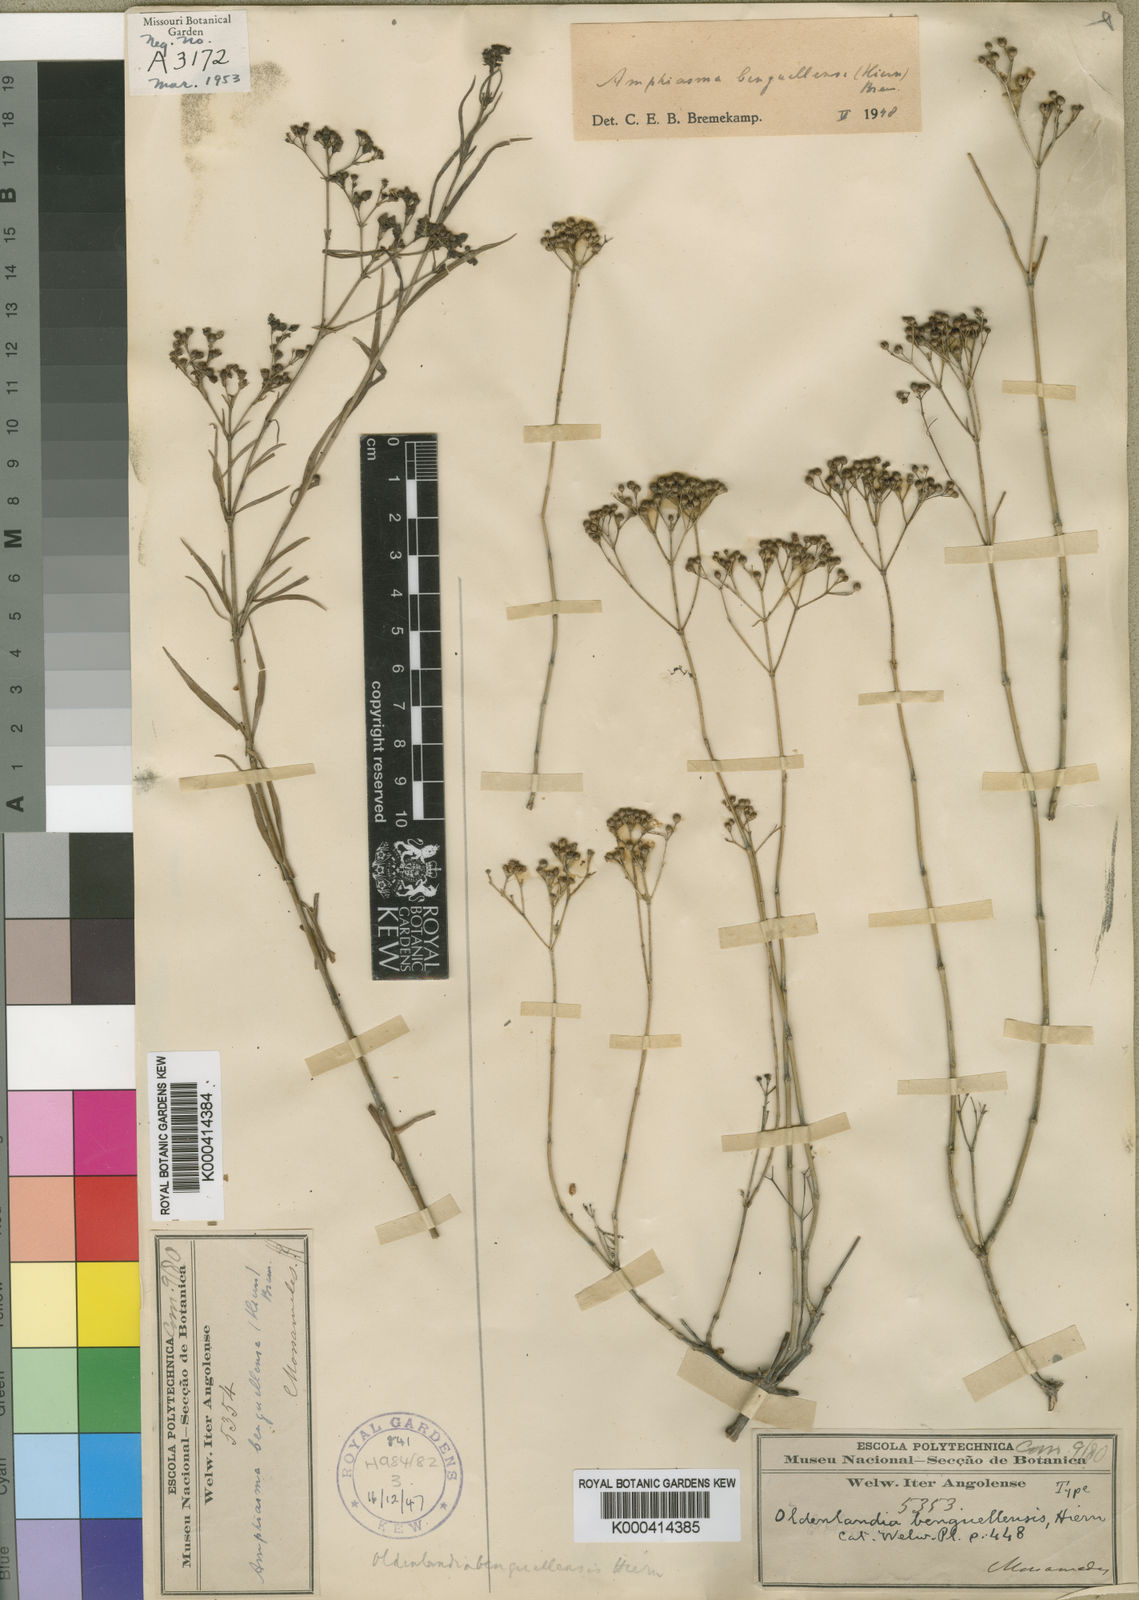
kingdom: Plantae
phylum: Tracheophyta
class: Magnoliopsida
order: Gentianales
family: Rubiaceae
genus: Amphiasma
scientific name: Amphiasma benguellense
